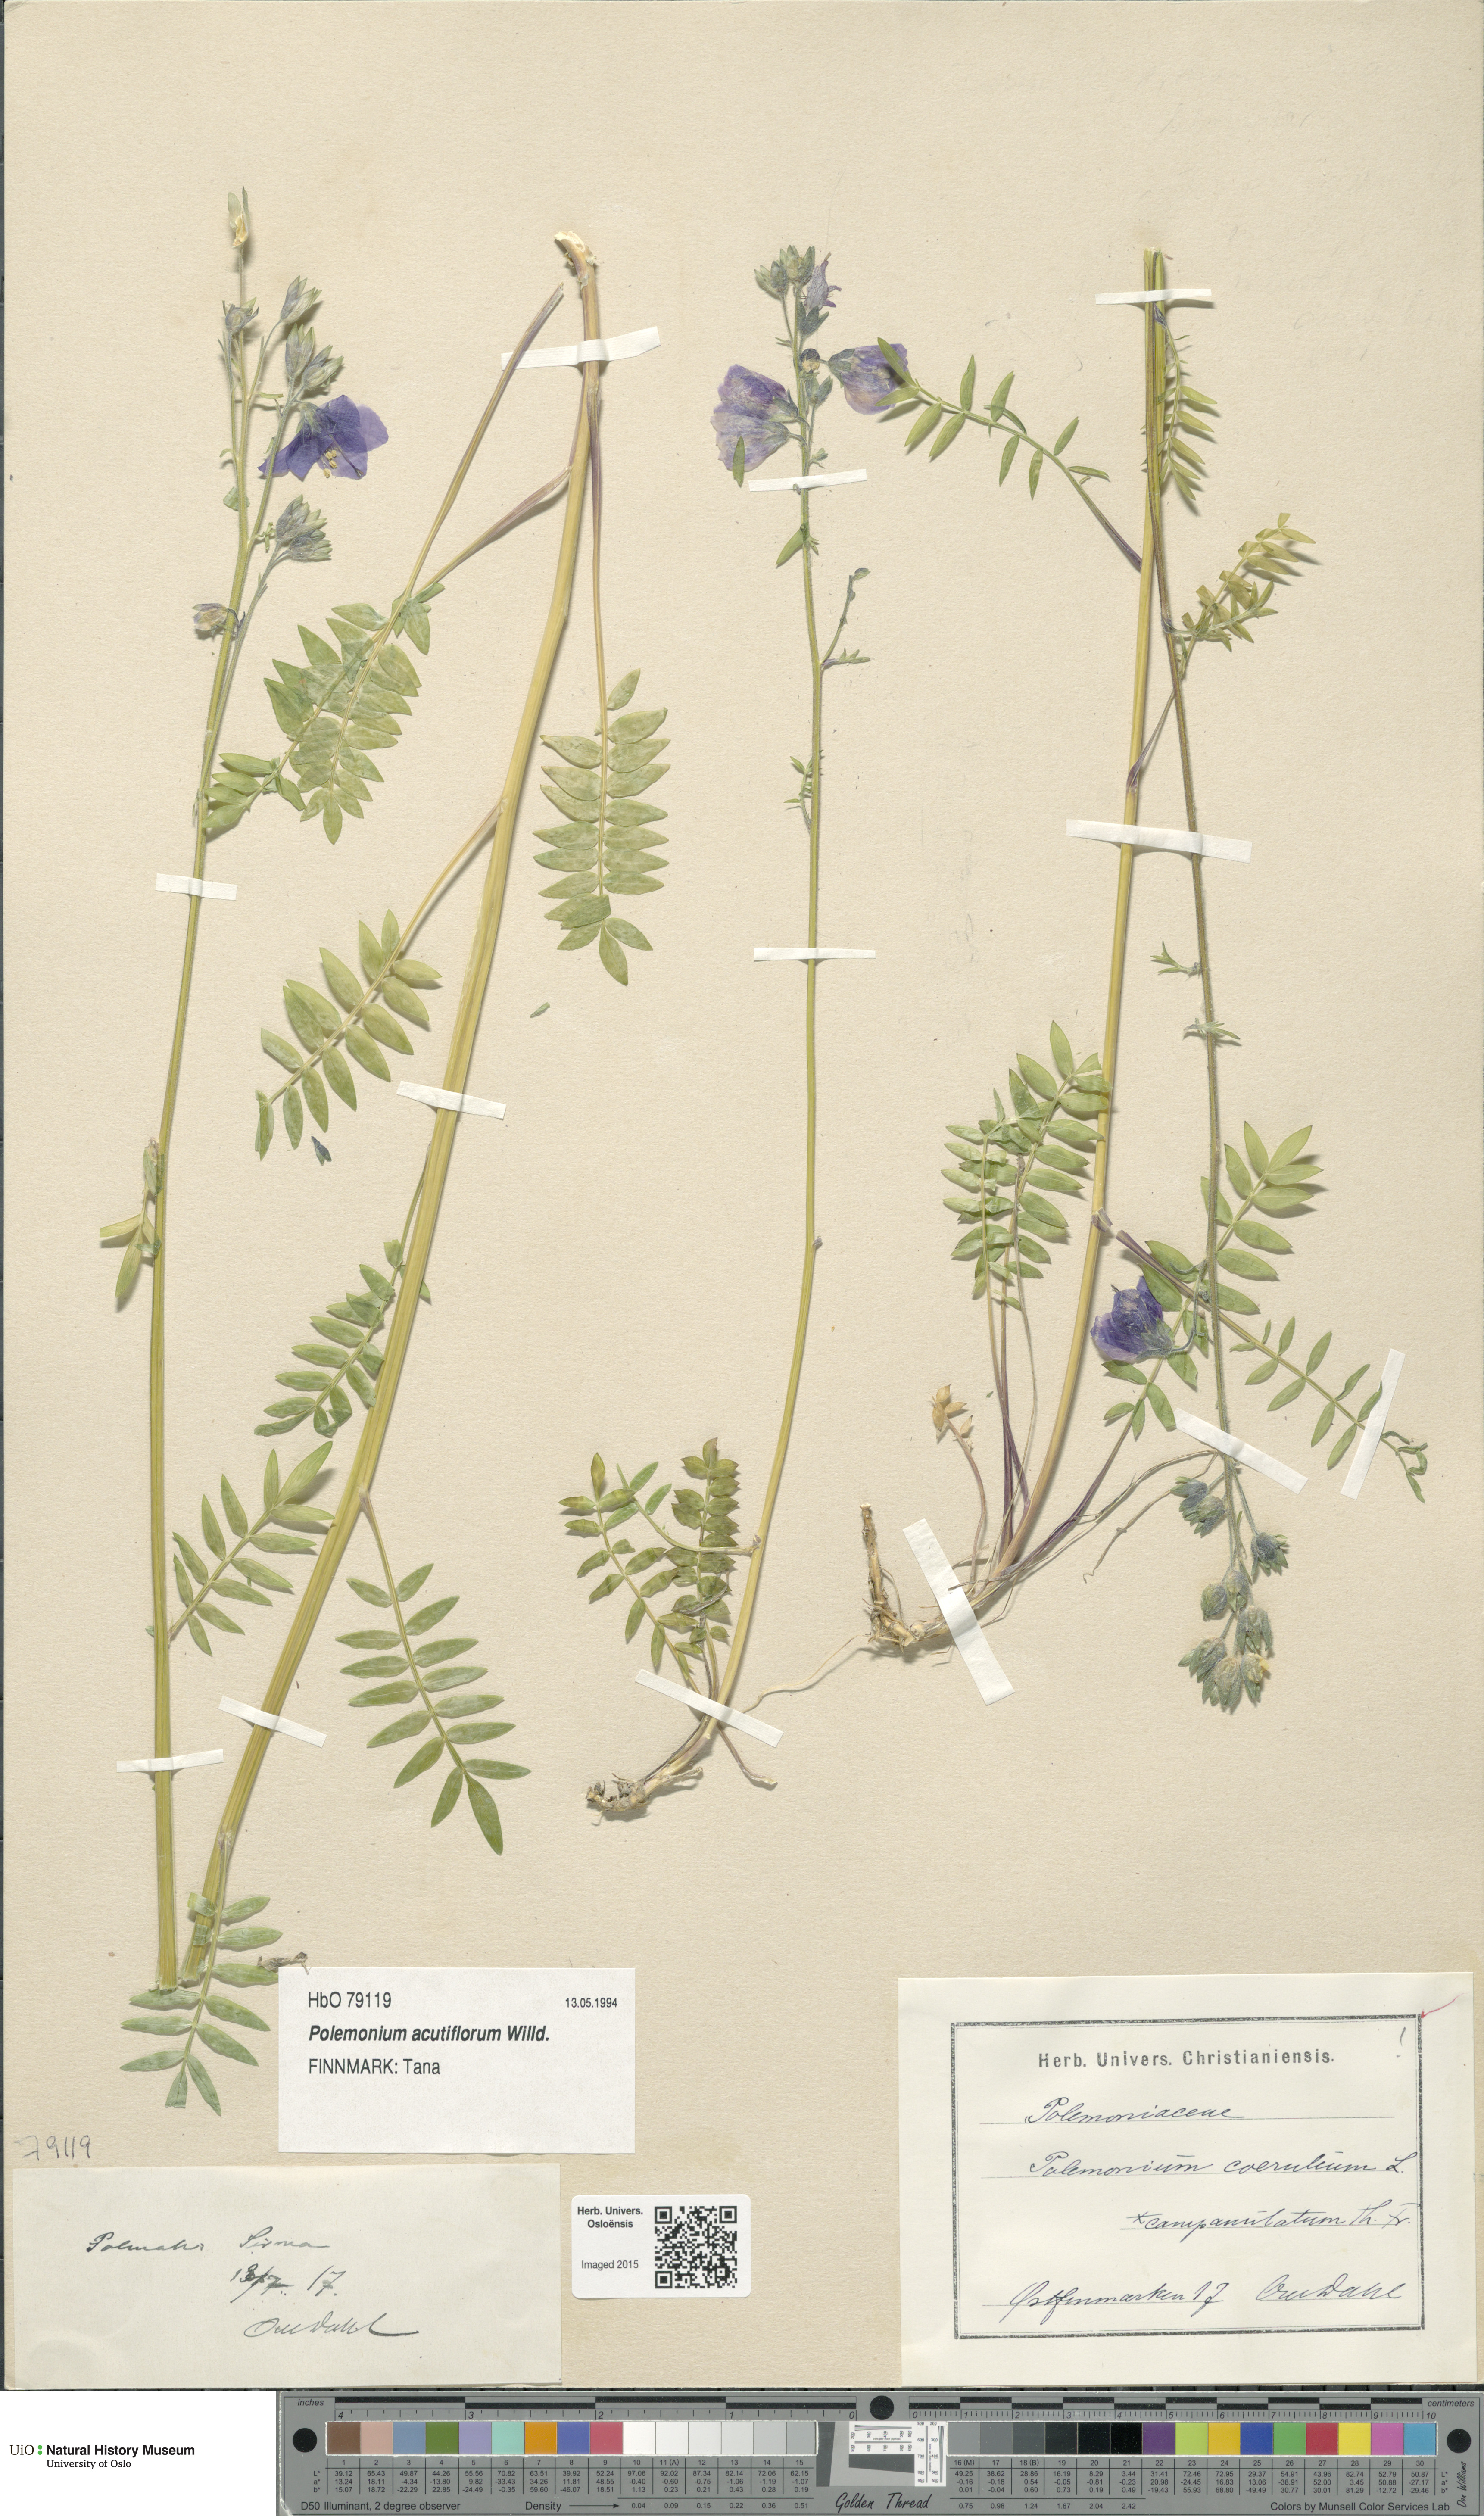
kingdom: Plantae
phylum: Tracheophyta
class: Magnoliopsida
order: Ericales
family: Polemoniaceae
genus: Polemonium
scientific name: Polemonium villosum
